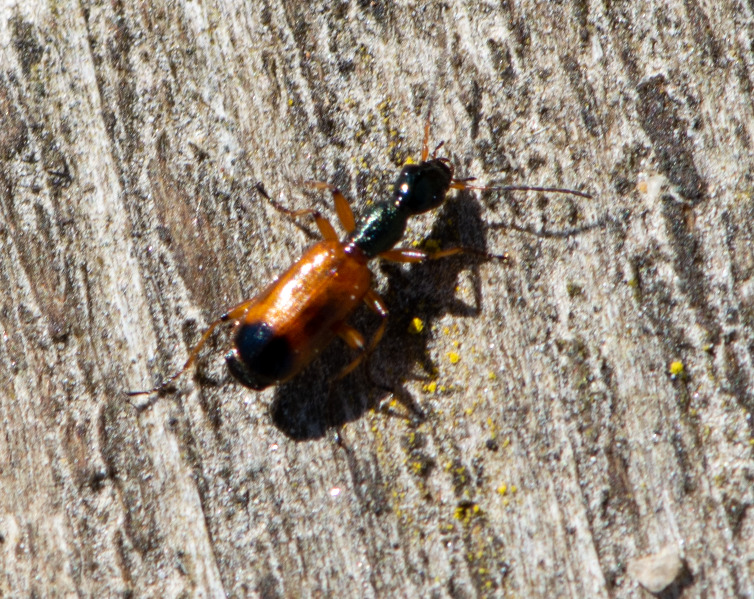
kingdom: Animalia
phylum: Arthropoda
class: Insecta
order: Coleoptera
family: Carabidae
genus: Odacantha
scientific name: Odacantha melanura
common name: Rødløber
